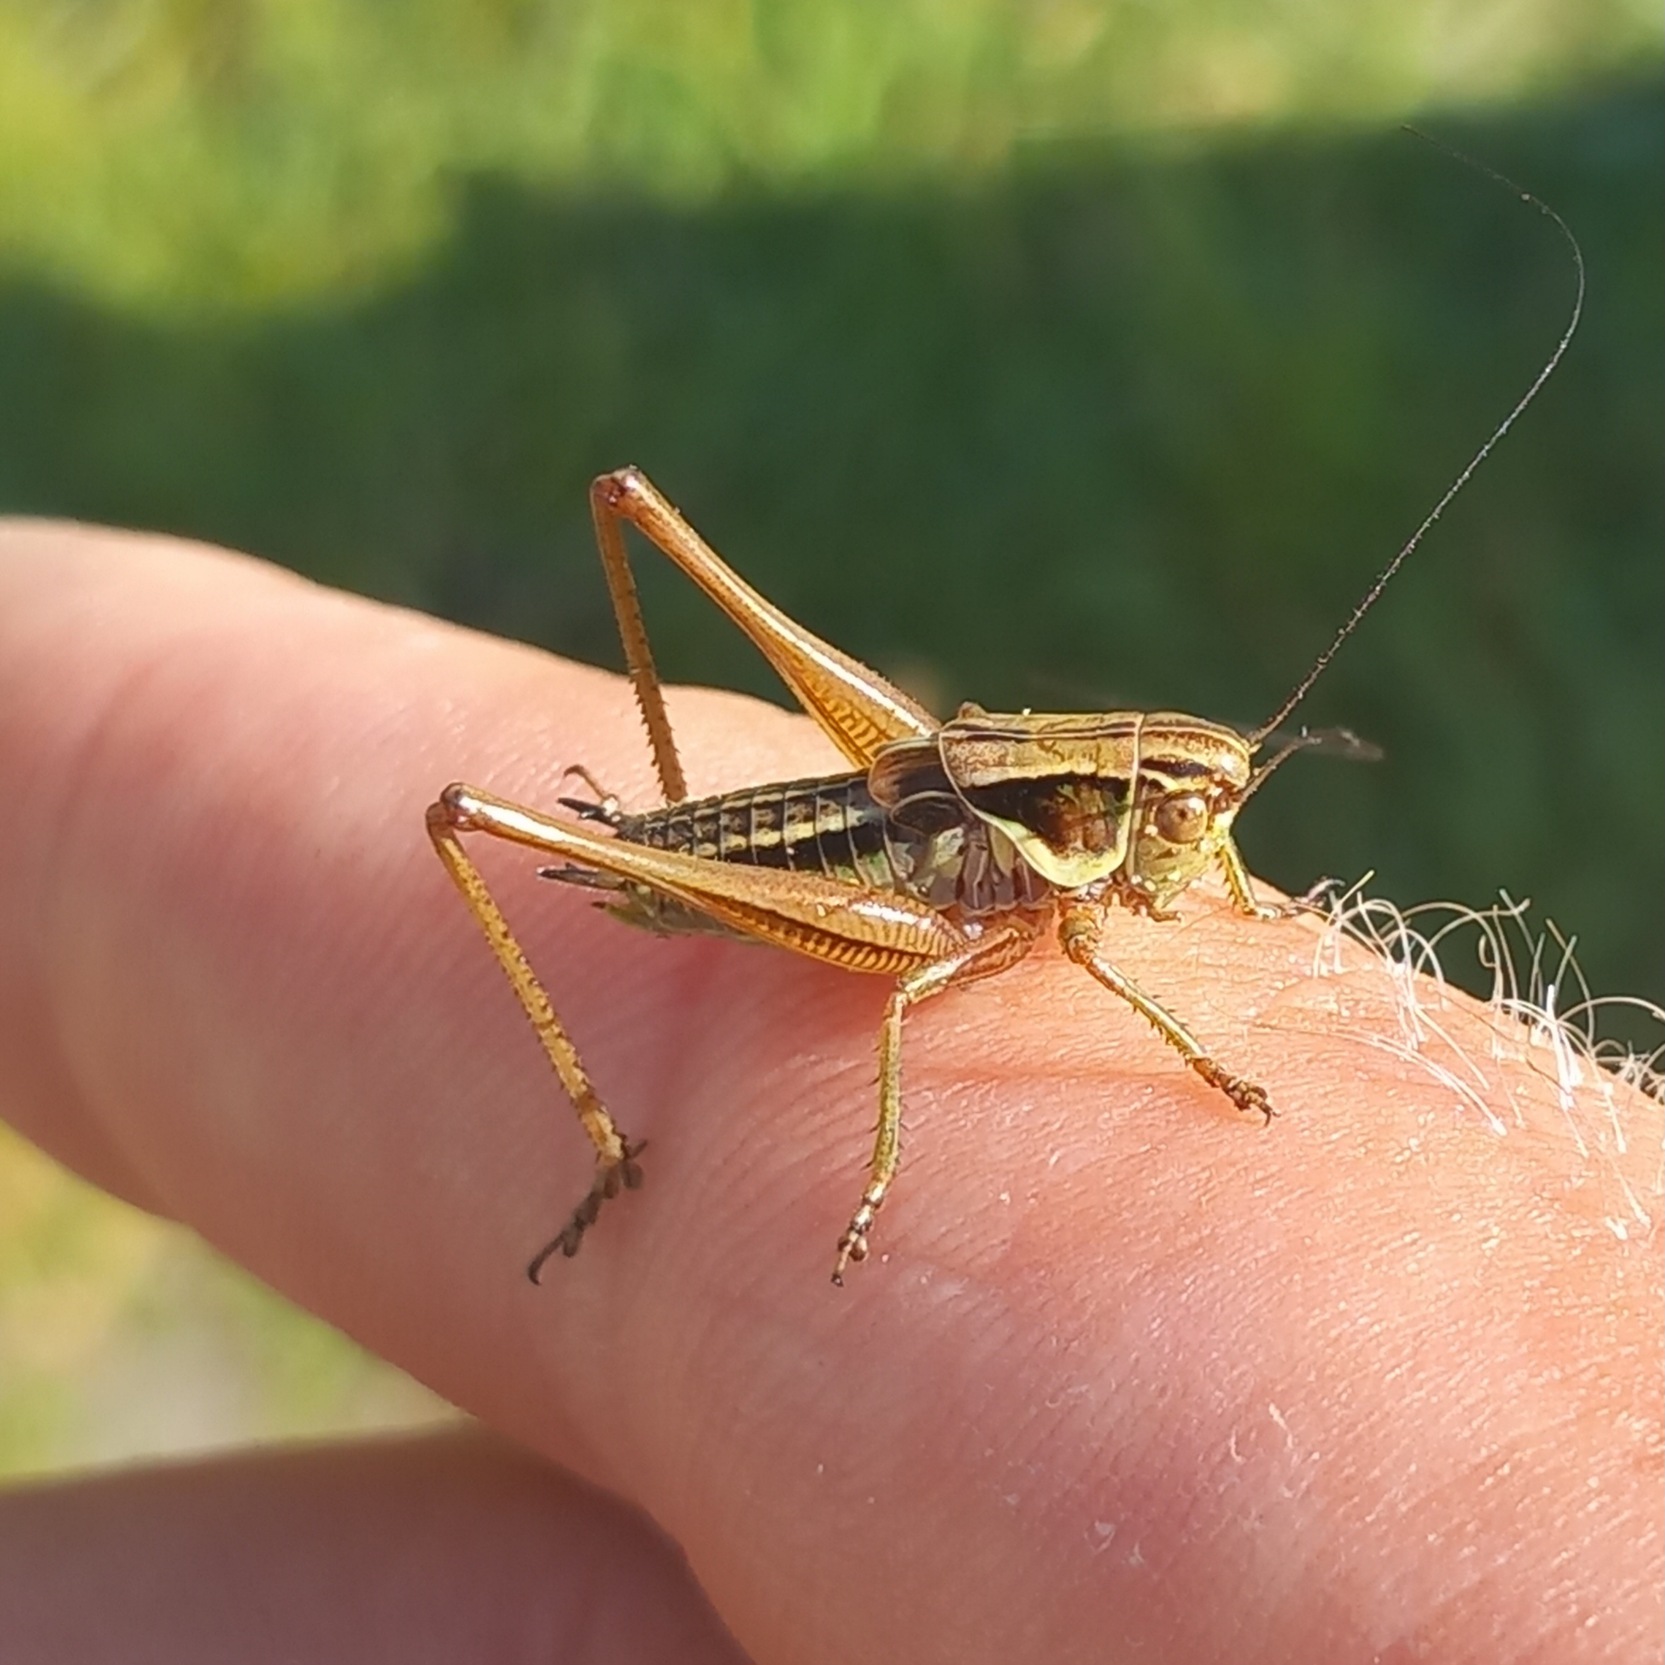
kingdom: Animalia
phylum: Arthropoda
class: Insecta
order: Orthoptera
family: Tettigoniidae
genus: Roeseliana
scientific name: Roeseliana roeselii
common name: Cikadegræshoppe
